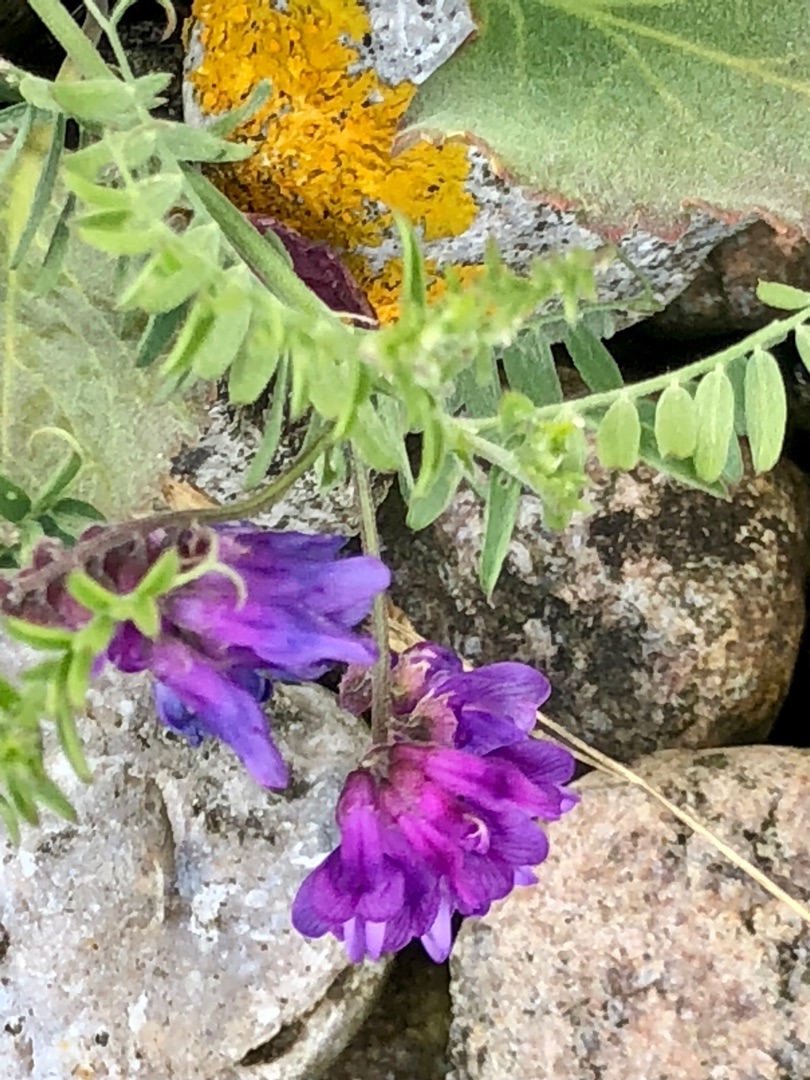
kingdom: Plantae
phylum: Tracheophyta
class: Magnoliopsida
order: Fabales
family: Fabaceae
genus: Vicia
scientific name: Vicia cracca
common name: Muse-vikke
